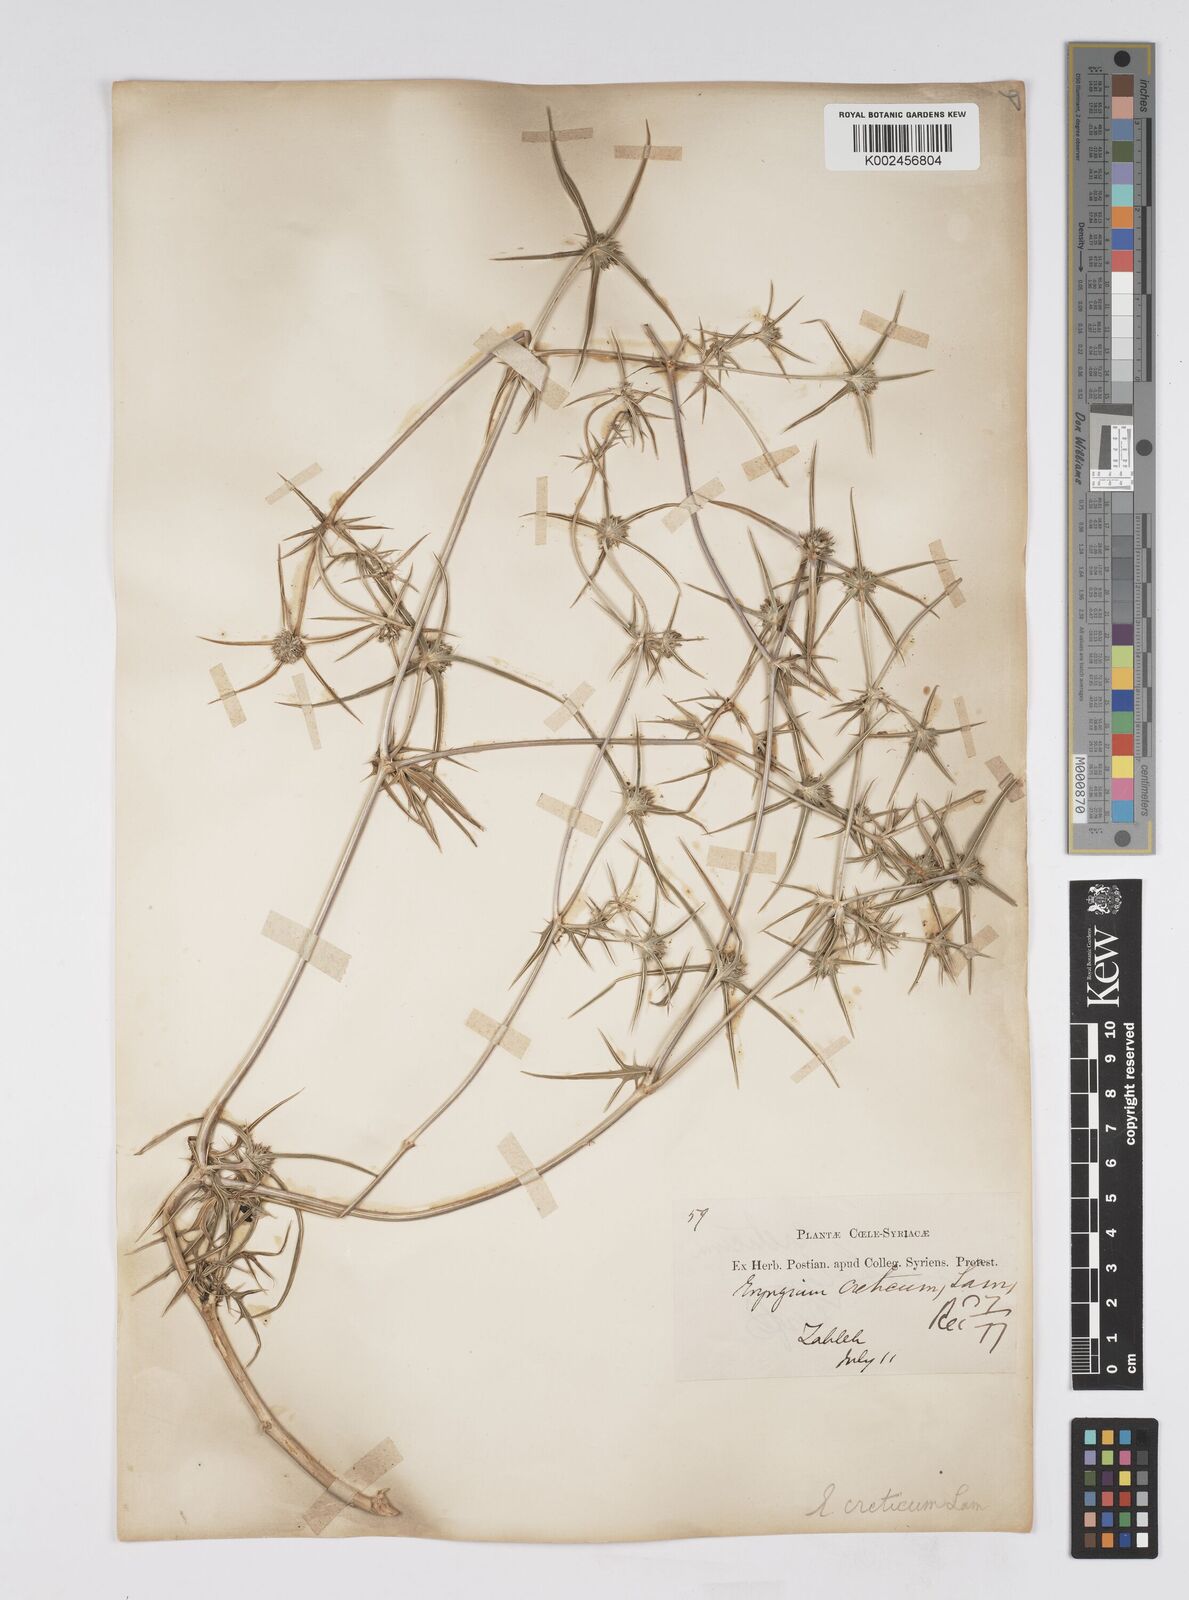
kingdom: Plantae
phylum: Tracheophyta
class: Magnoliopsida
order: Apiales
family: Apiaceae
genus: Eryngium
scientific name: Eryngium creticum
